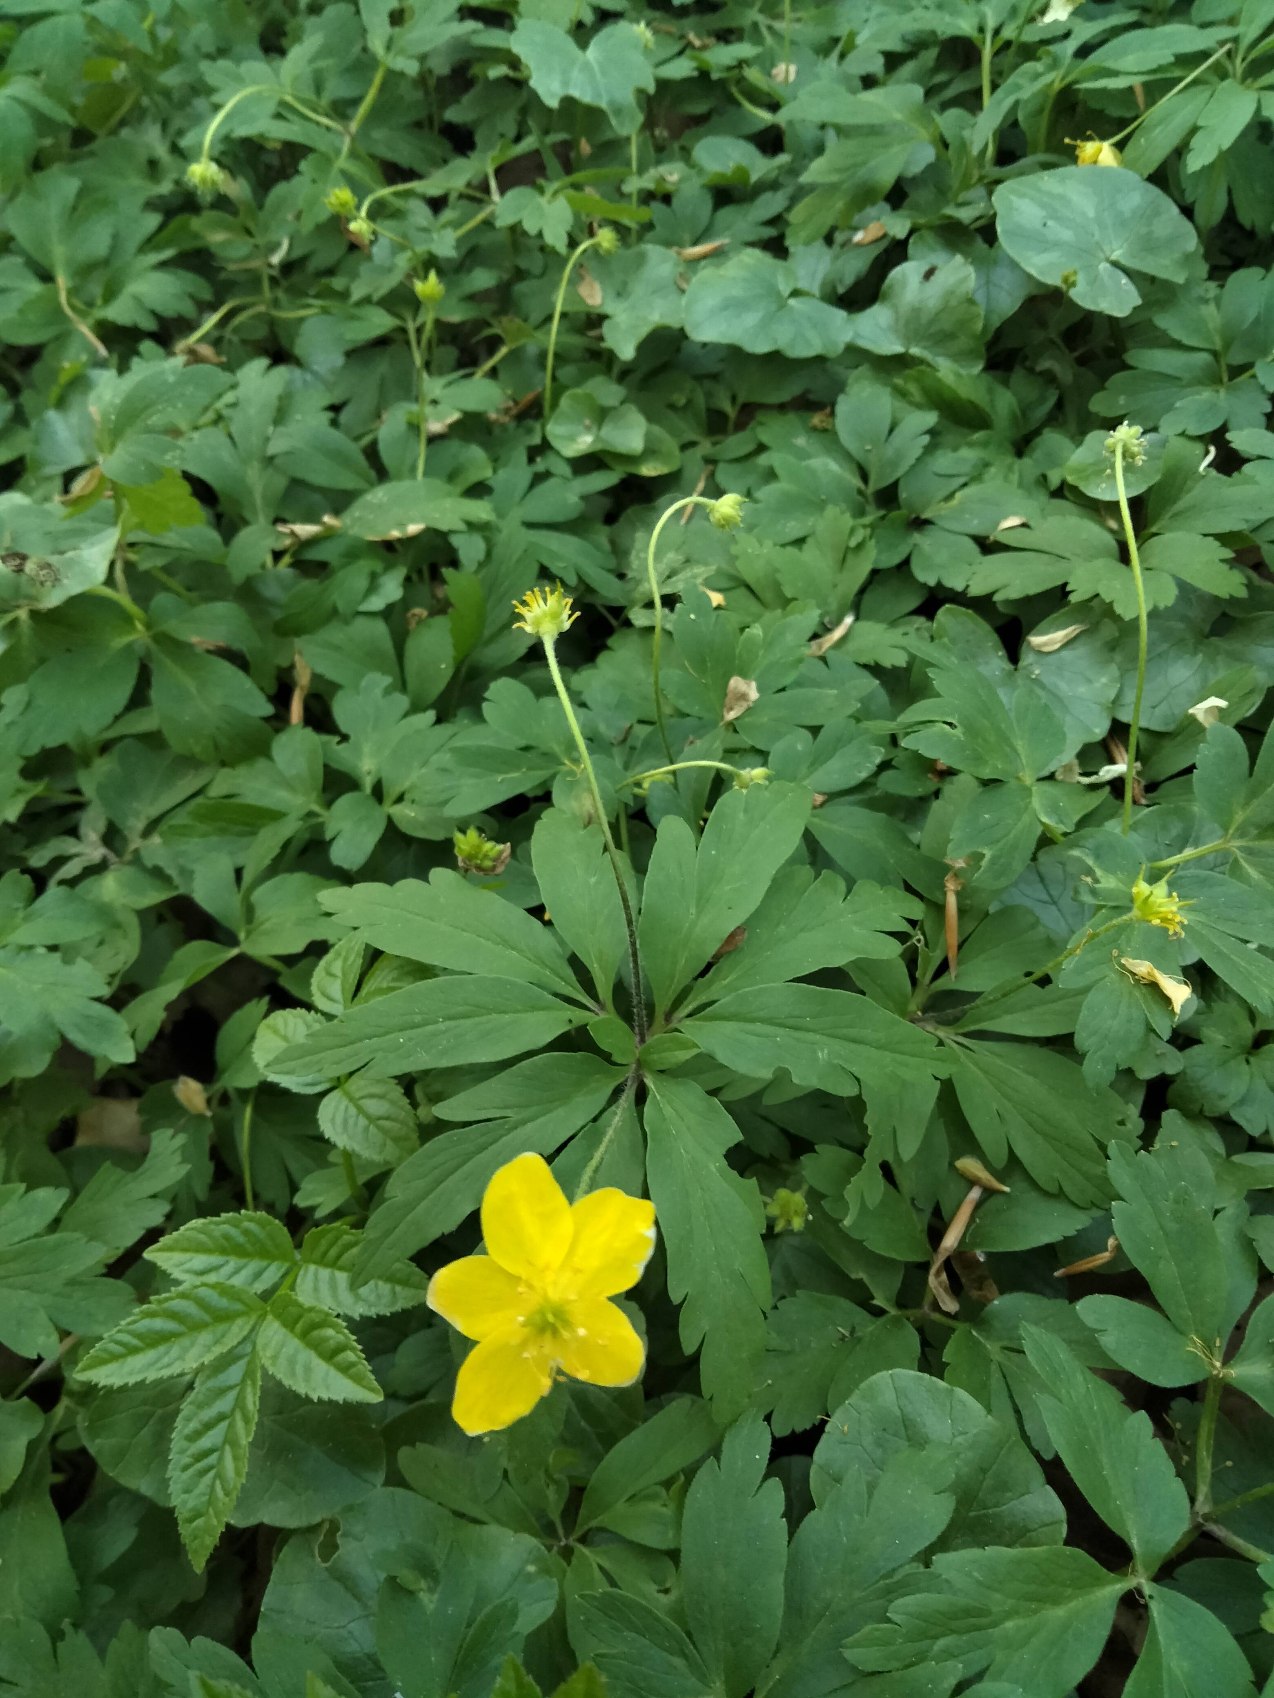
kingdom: Plantae
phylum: Tracheophyta
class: Magnoliopsida
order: Ranunculales
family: Ranunculaceae
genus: Anemone
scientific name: Anemone ranunculoides
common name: Gul anemone
